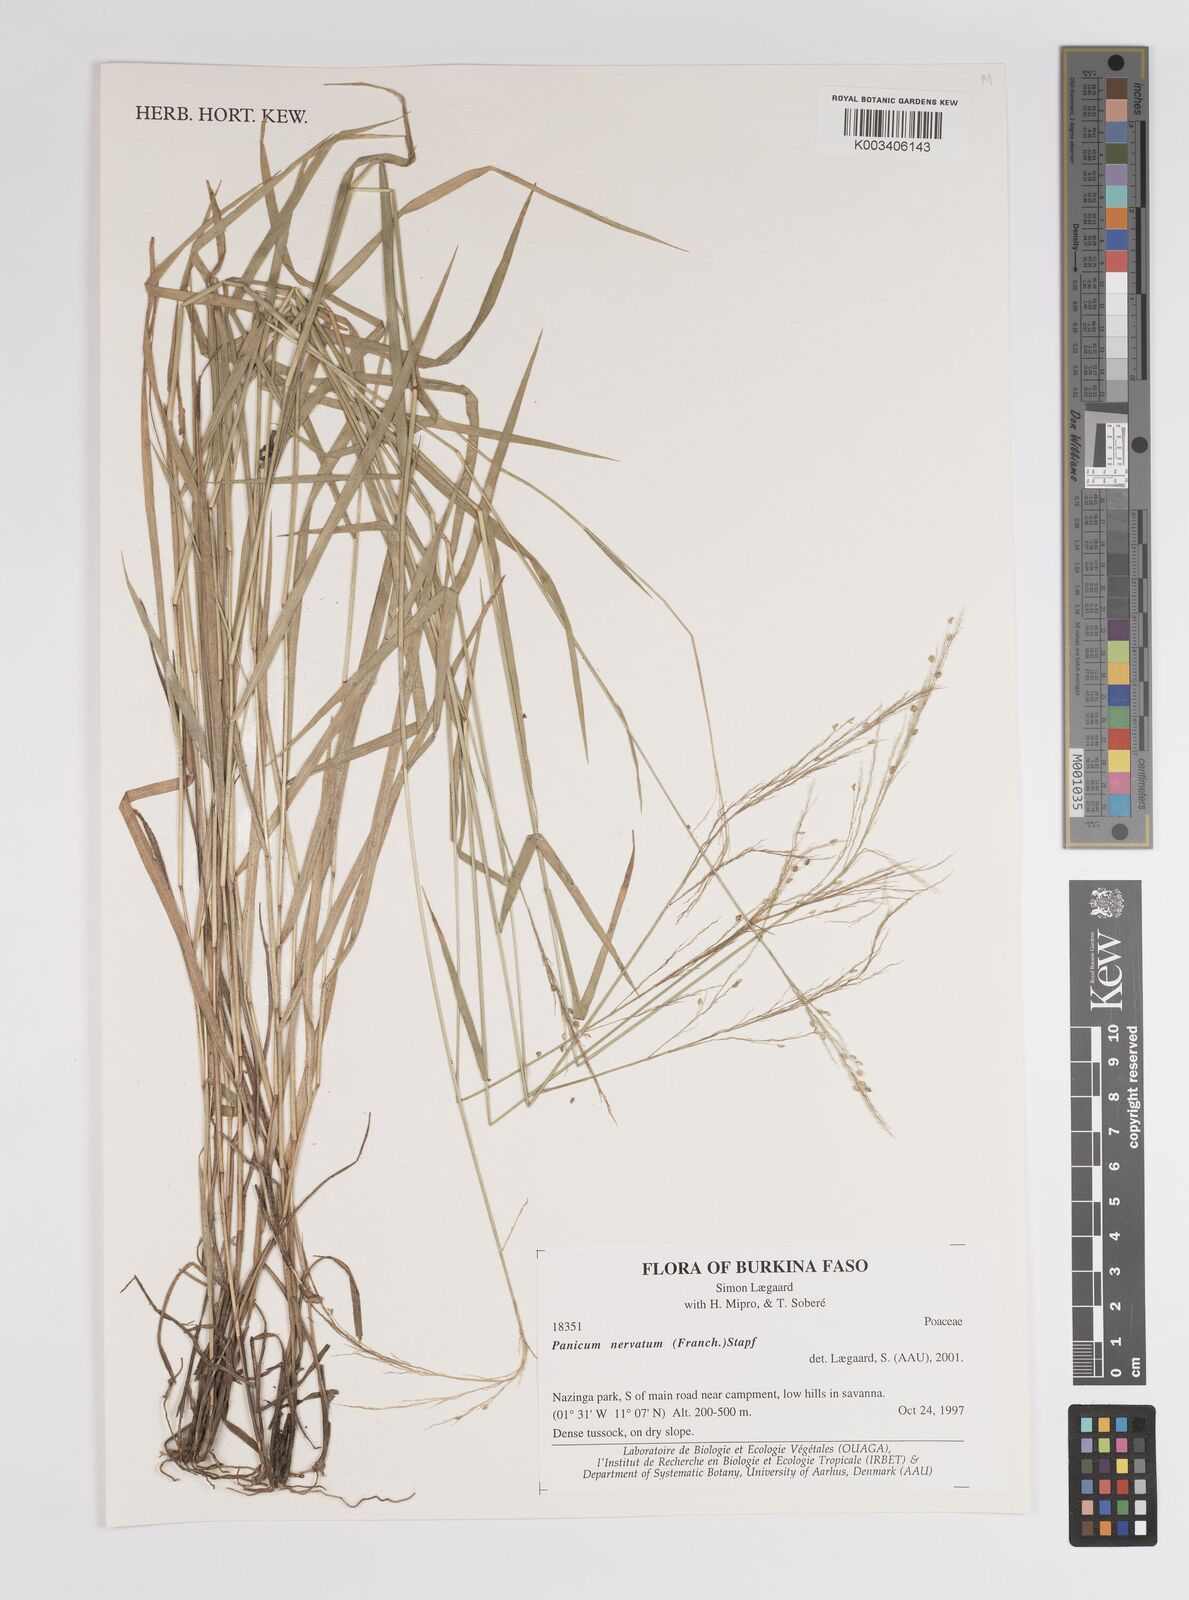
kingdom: Plantae
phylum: Tracheophyta
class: Liliopsida
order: Poales
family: Poaceae
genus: Trichanthecium
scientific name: Trichanthecium nervatum
